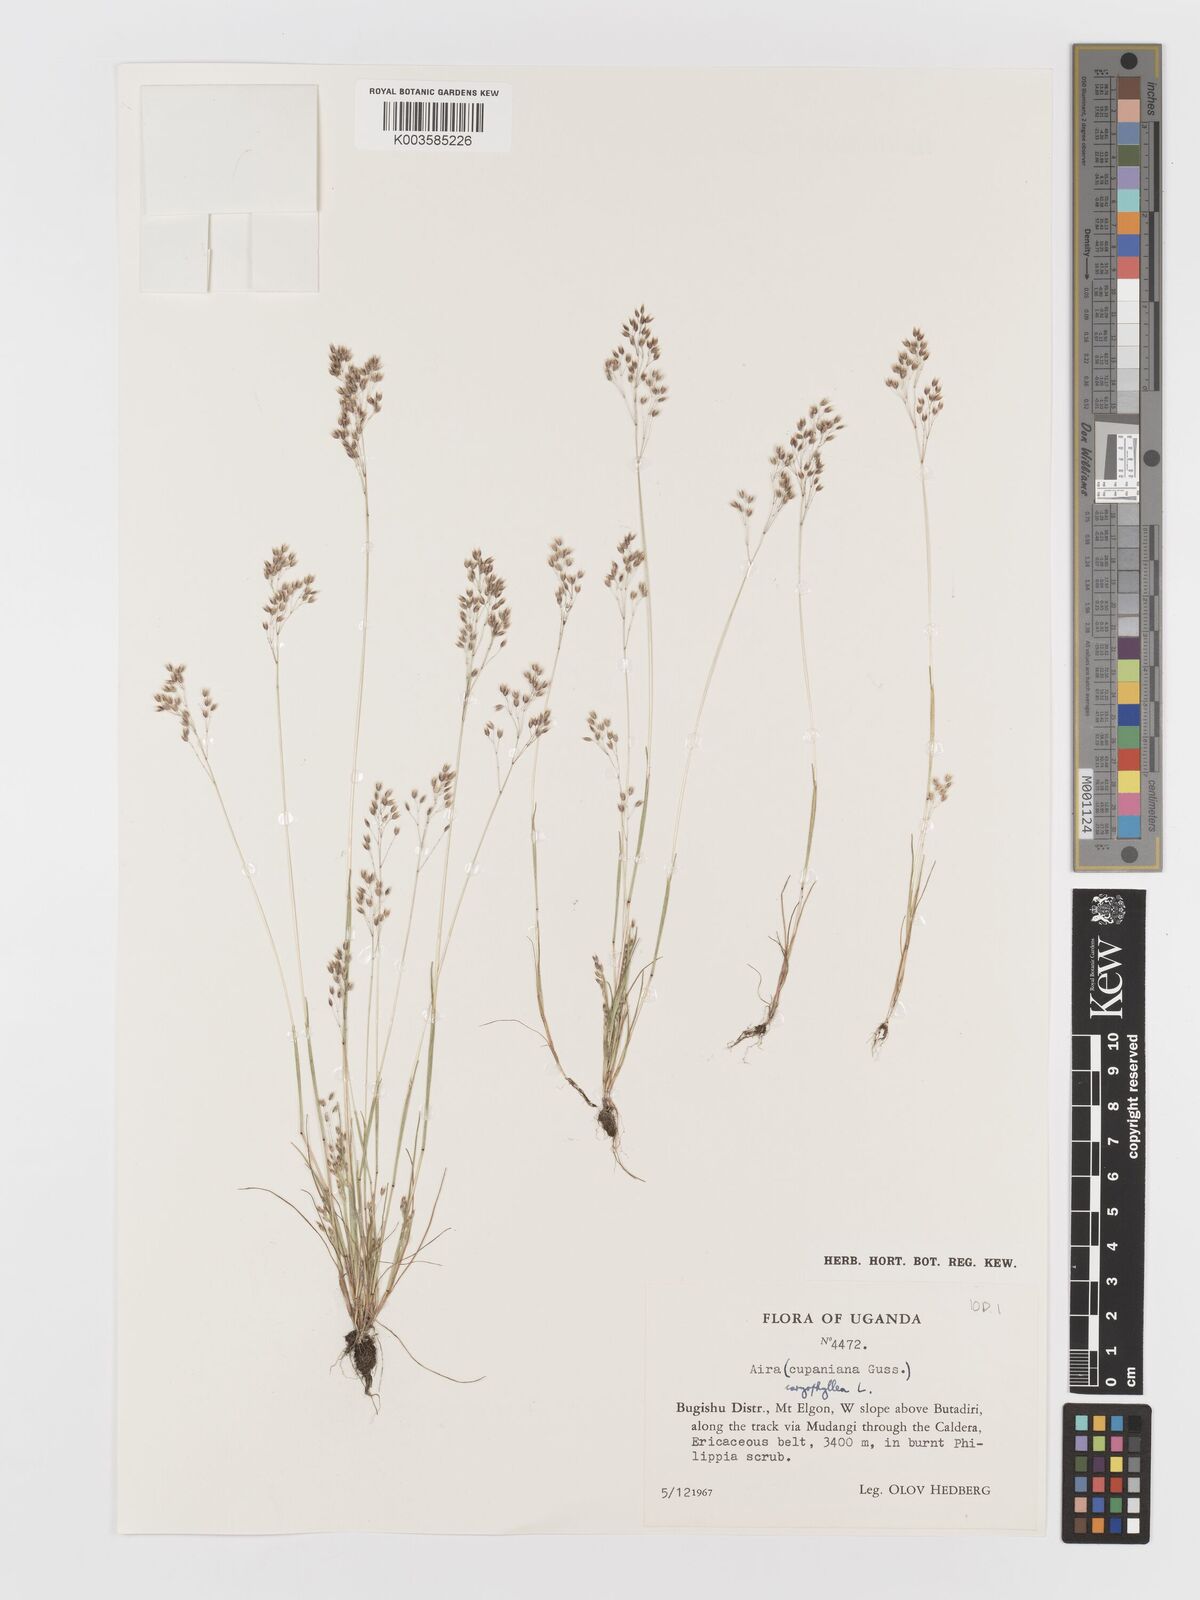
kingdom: Plantae
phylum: Tracheophyta
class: Liliopsida
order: Poales
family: Poaceae
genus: Aira
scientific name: Aira caryophyllea
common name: Silver hairgrass
